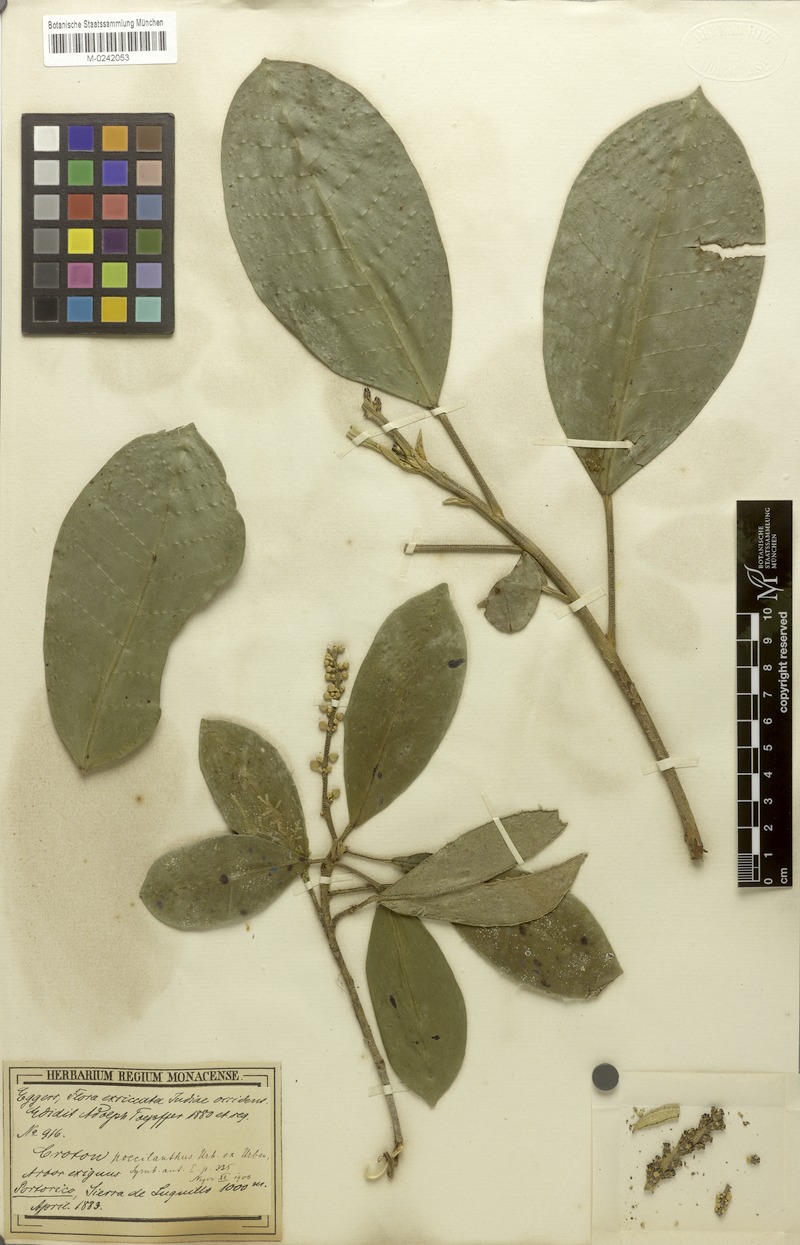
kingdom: Plantae
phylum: Tracheophyta
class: Magnoliopsida
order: Malpighiales
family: Euphorbiaceae
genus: Croton
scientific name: Croton poecilanthus
